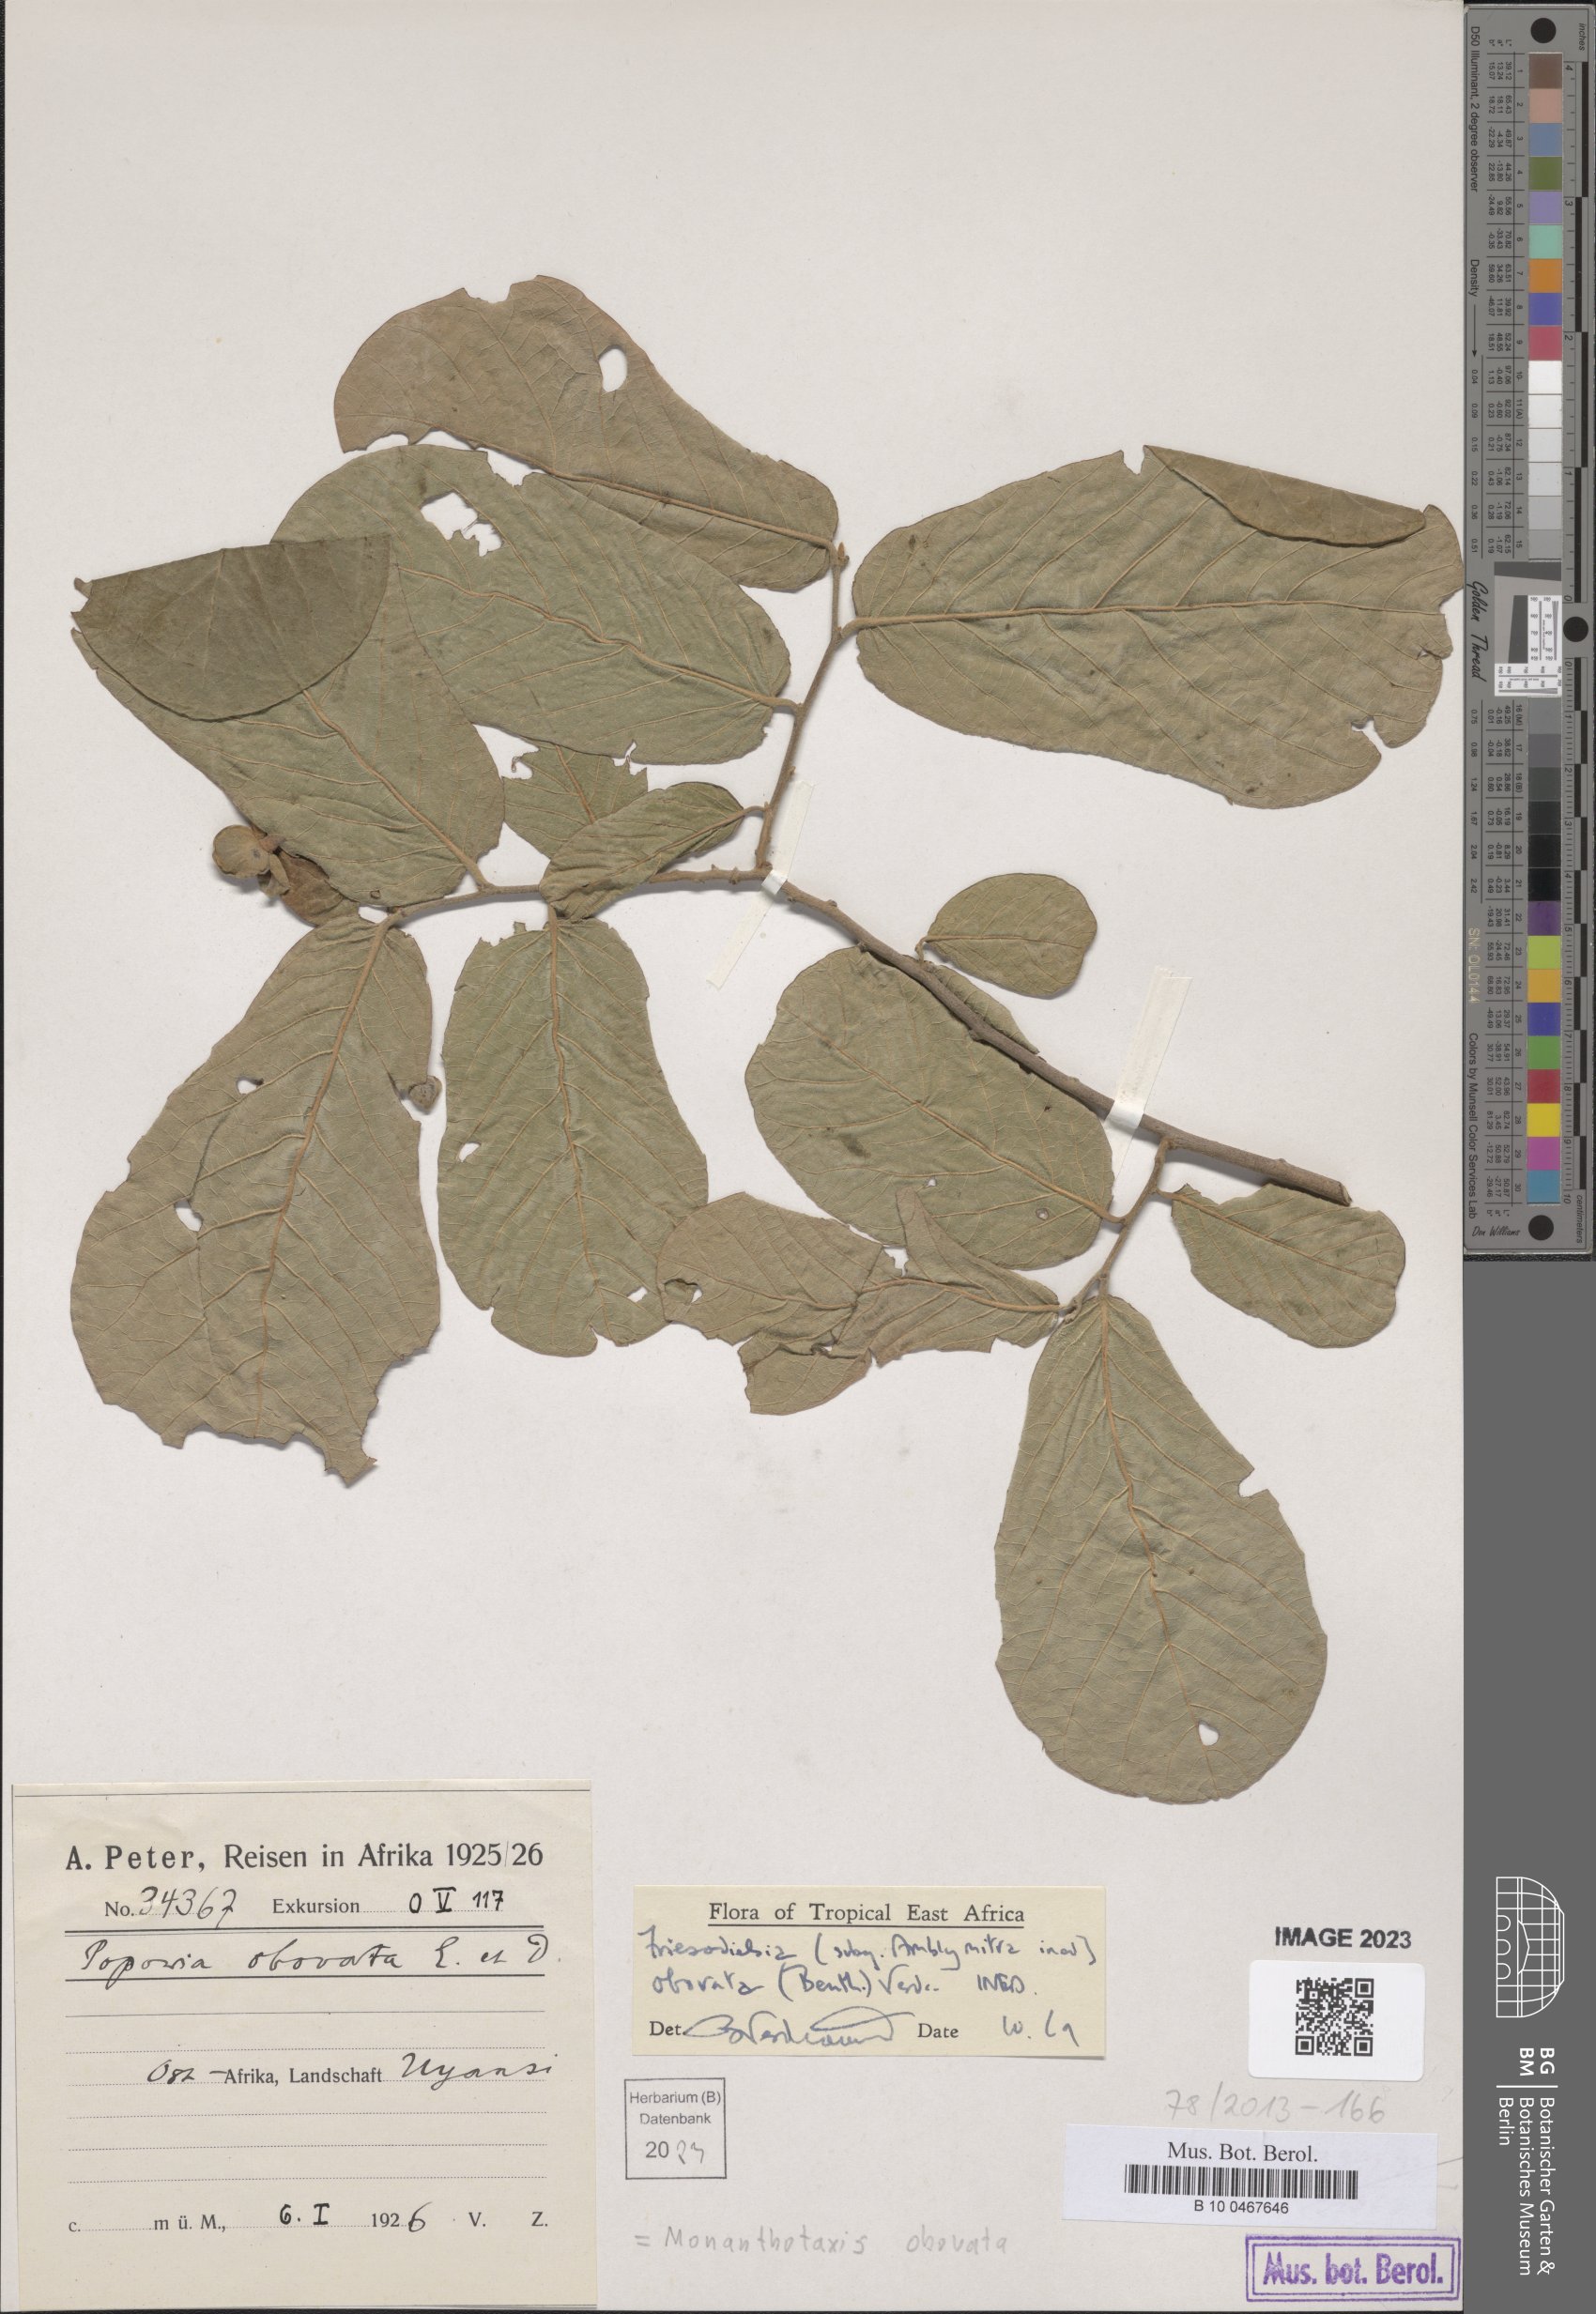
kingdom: Plantae
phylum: Tracheophyta
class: Magnoliopsida
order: Magnoliales
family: Annonaceae
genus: Friesodielsia
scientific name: Friesodielsia obovata
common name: Monkey fingers
